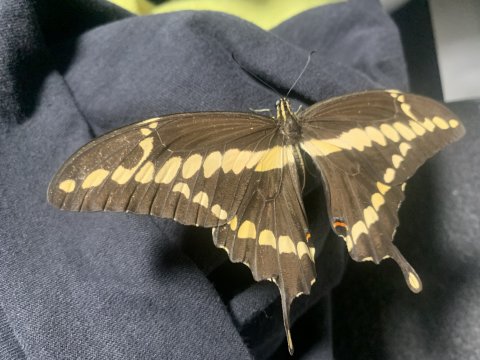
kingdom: Animalia
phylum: Arthropoda
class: Insecta
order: Lepidoptera
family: Papilionidae
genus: Papilio
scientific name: Papilio rumiko
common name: Western Giant Swallowtail
